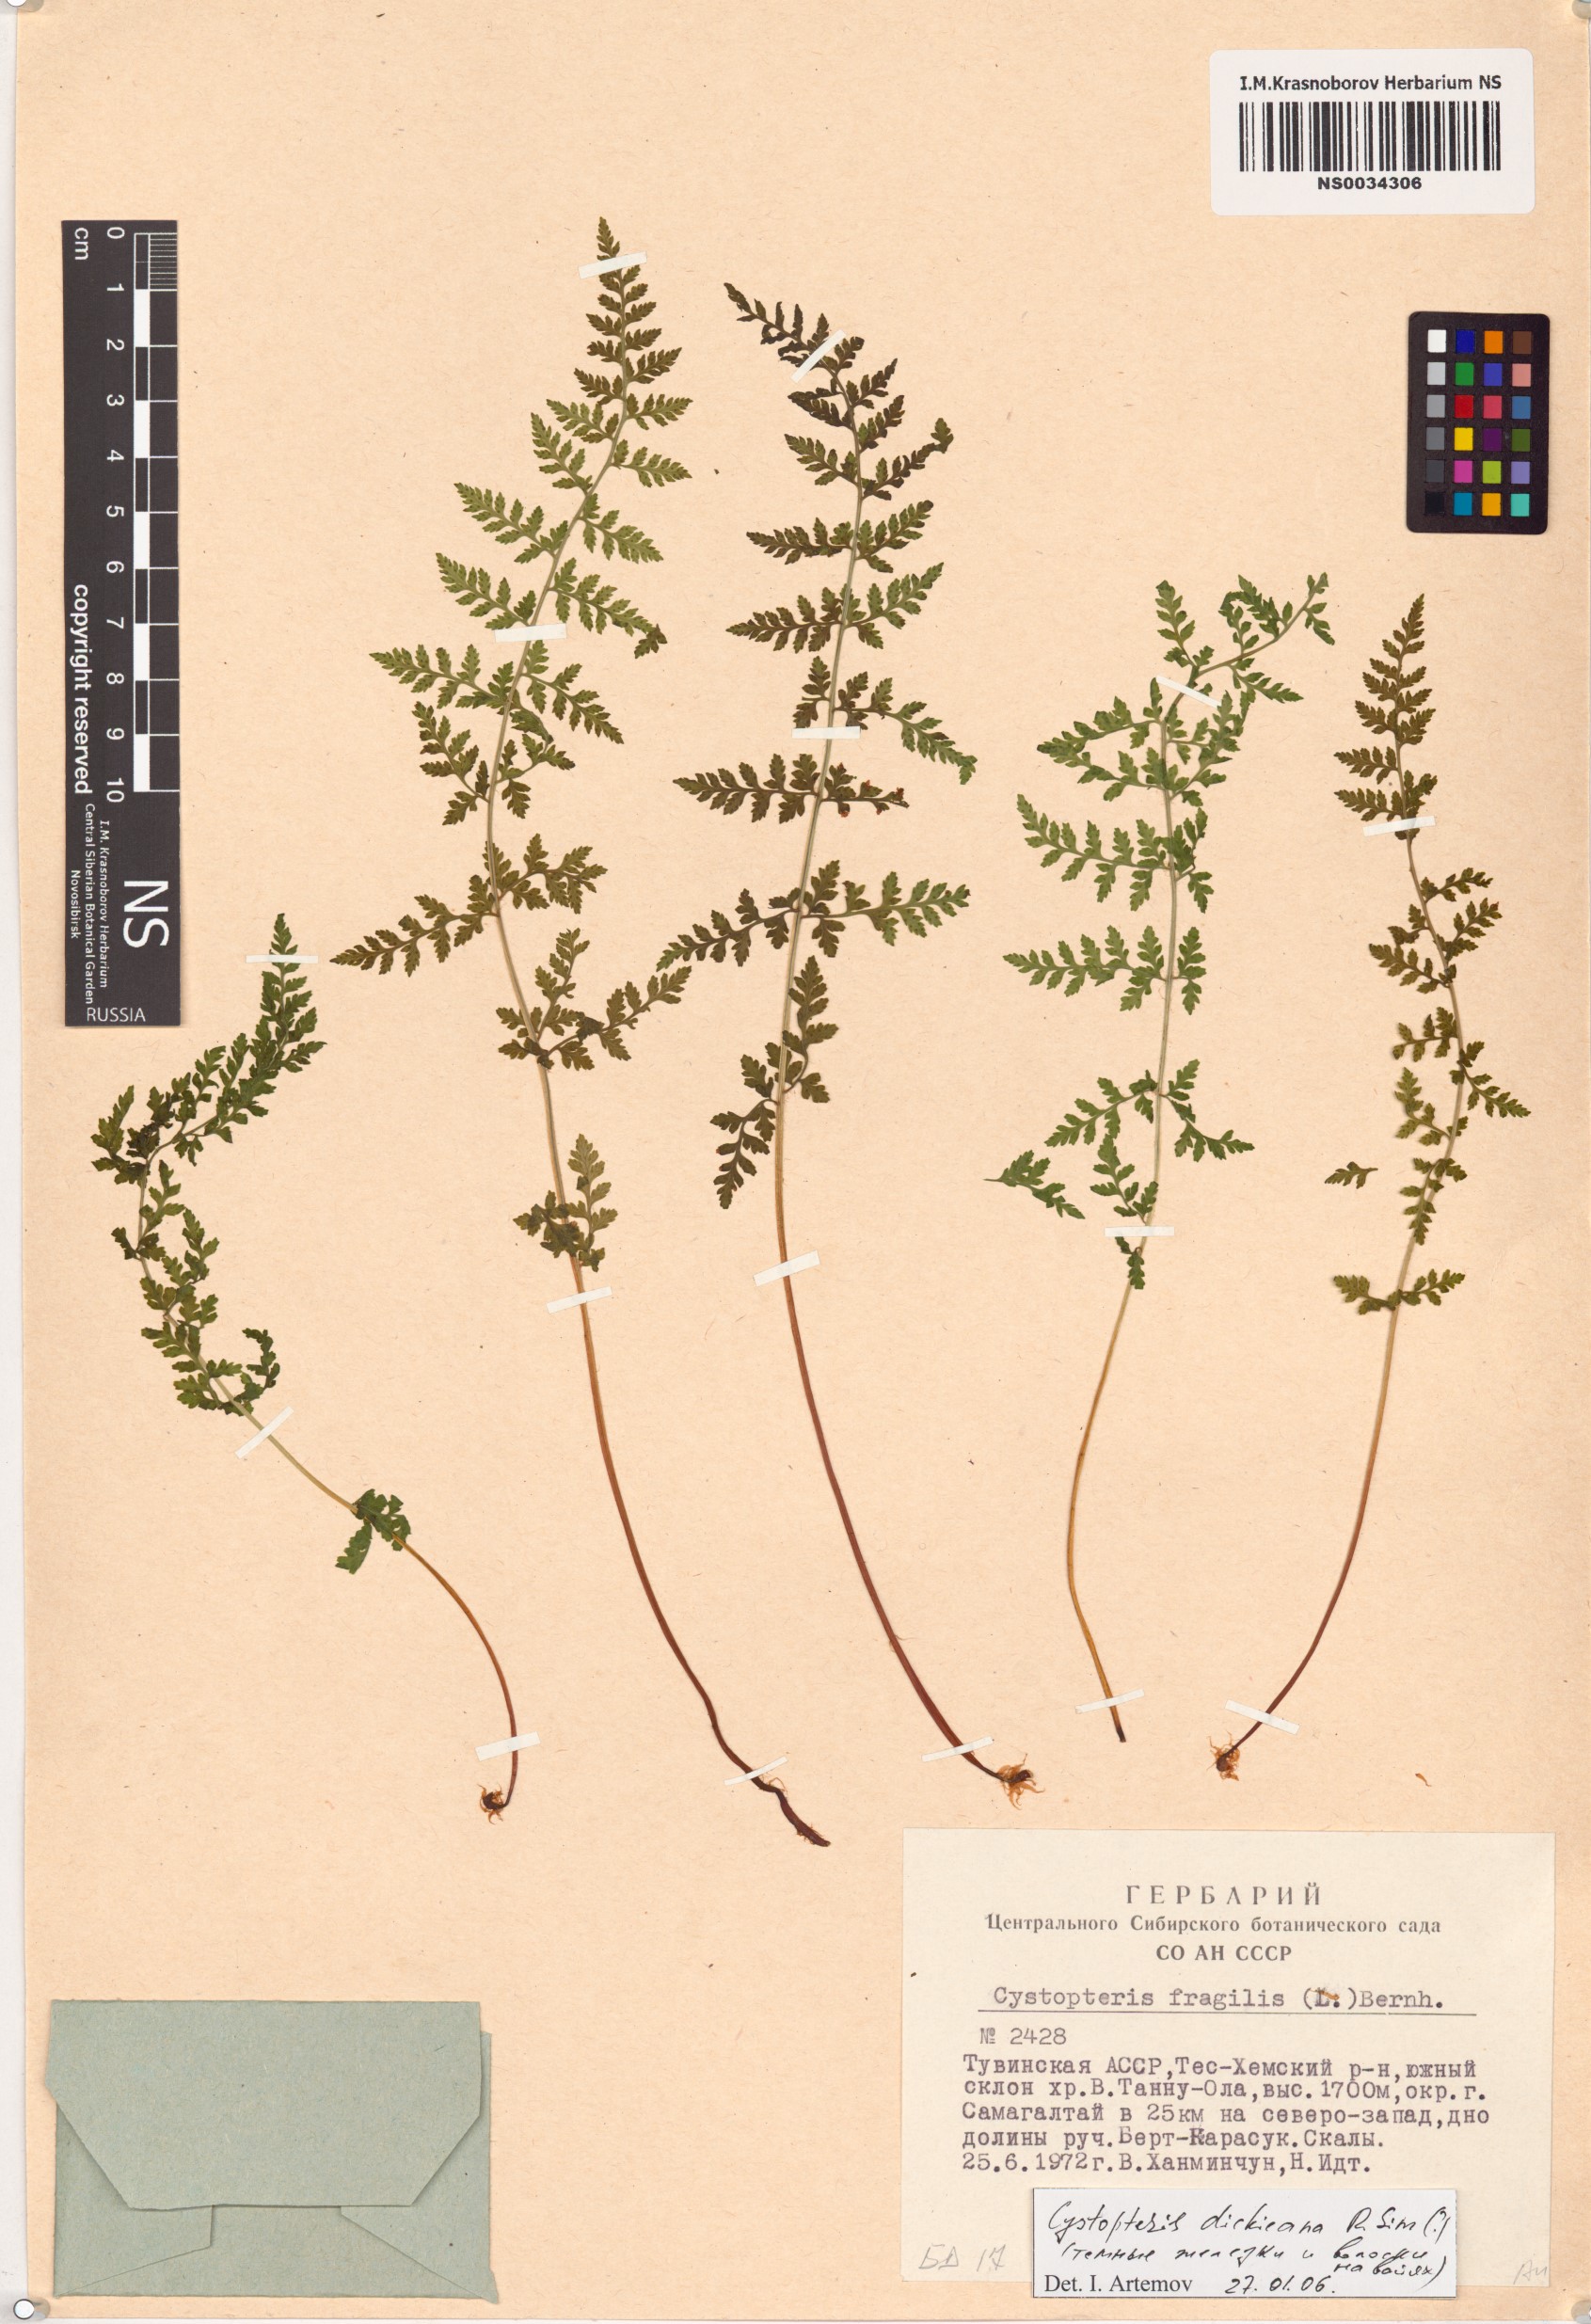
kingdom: Plantae
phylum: Tracheophyta
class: Polypodiopsida
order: Polypodiales
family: Cystopteridaceae
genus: Cystopteris
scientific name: Cystopteris dickieana
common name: Dickie's bladder-fern
